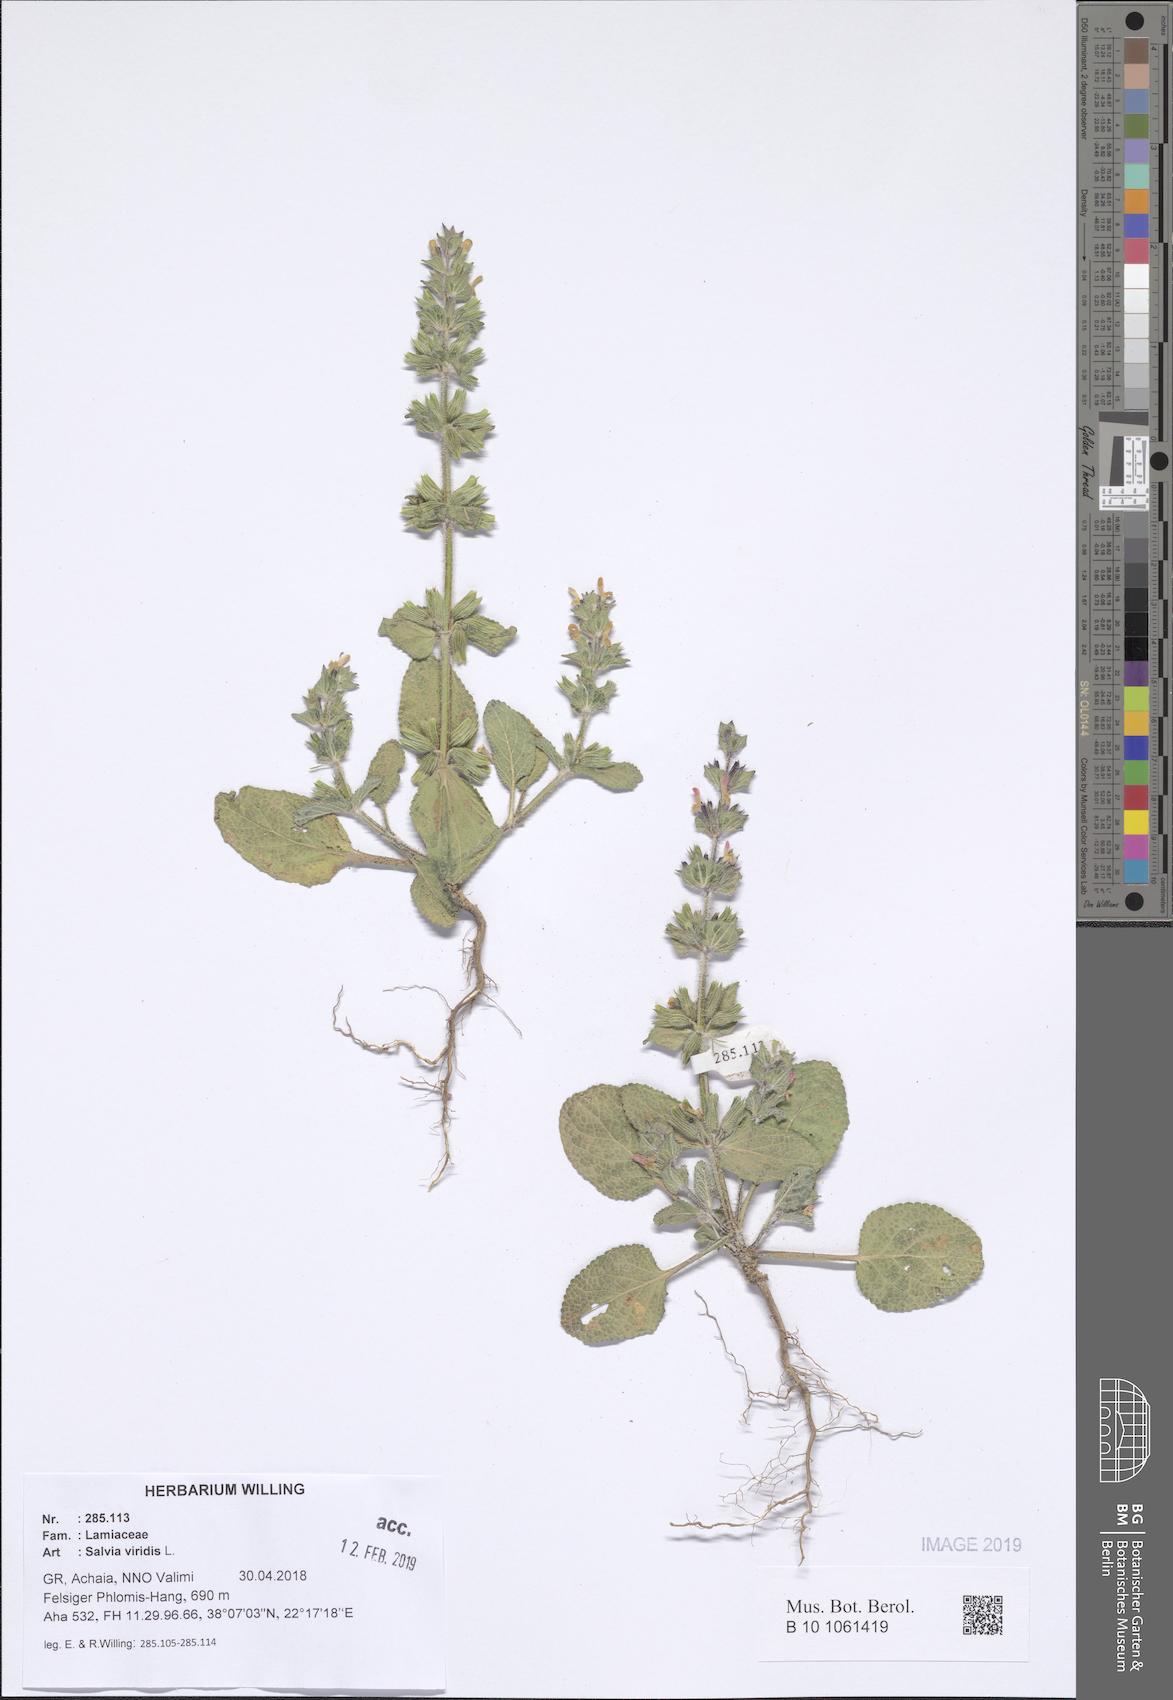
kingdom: Plantae
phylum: Tracheophyta
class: Magnoliopsida
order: Lamiales
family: Lamiaceae
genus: Salvia
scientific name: Salvia viridis
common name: Annual clary
